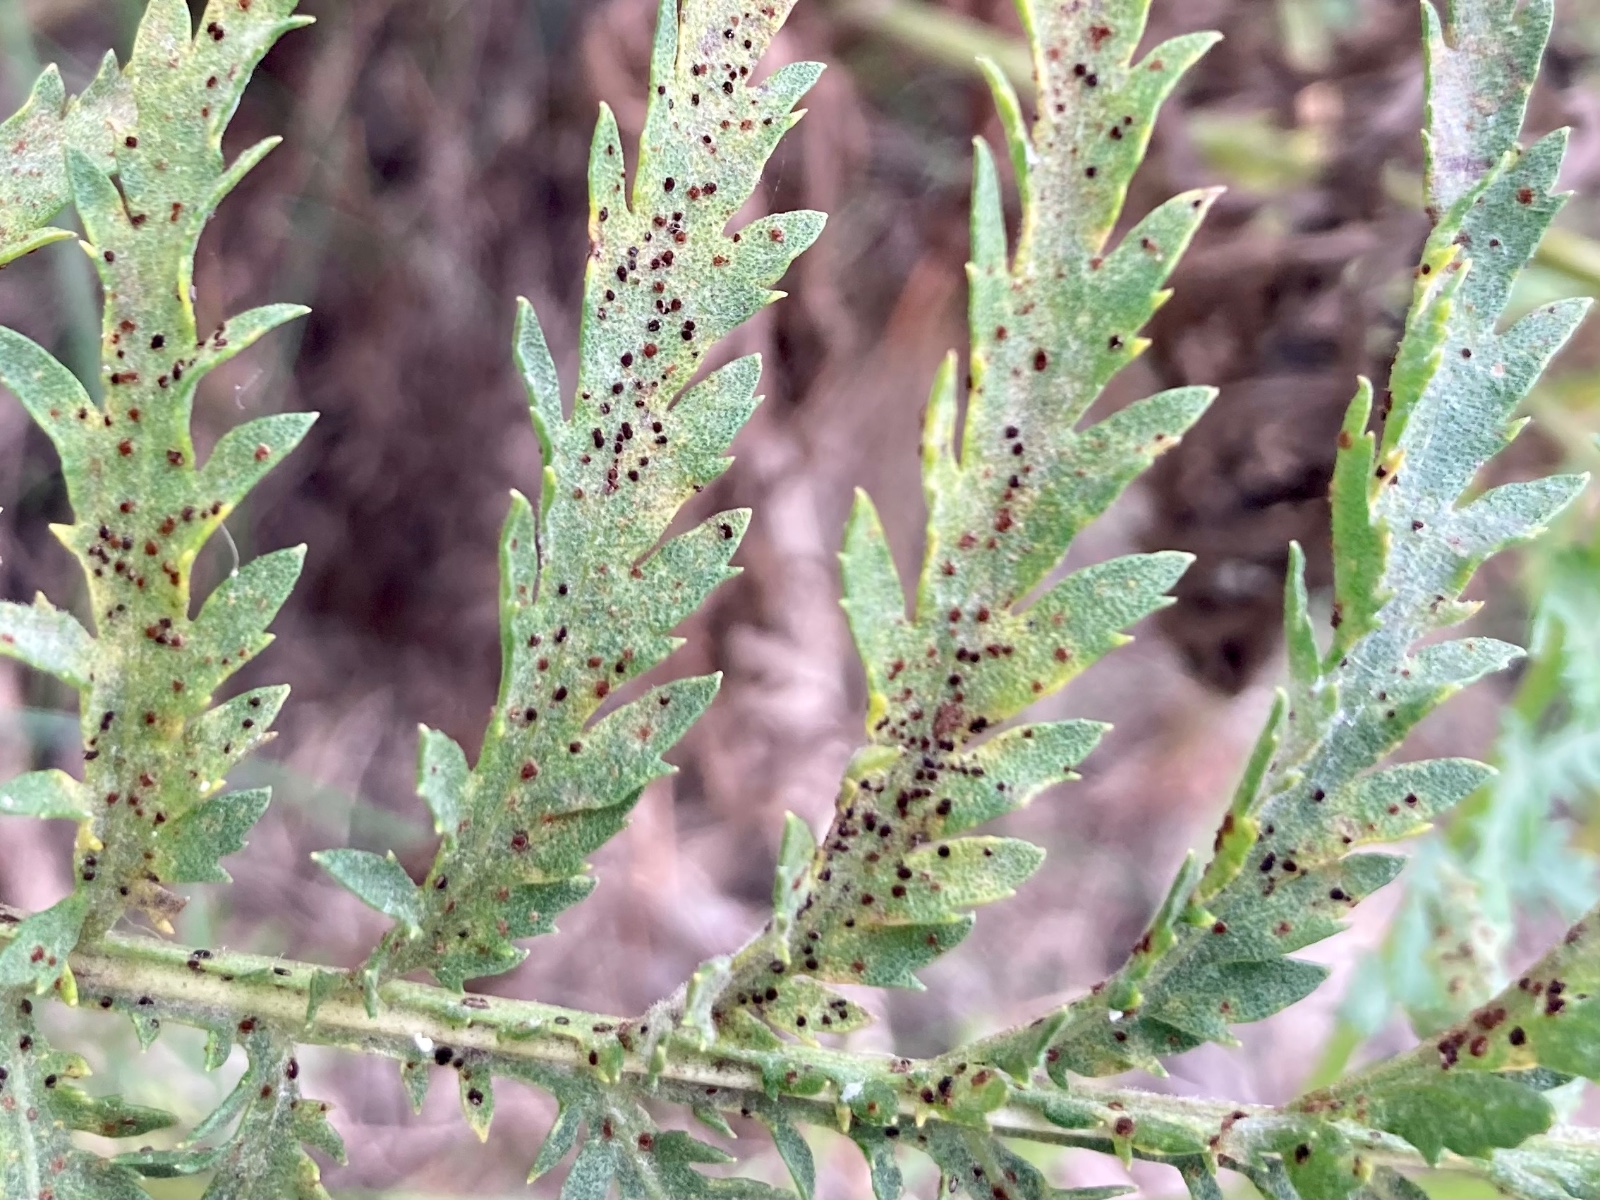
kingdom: Fungi
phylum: Basidiomycota
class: Pucciniomycetes
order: Pucciniales
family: Pucciniaceae
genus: Puccinia
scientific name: Puccinia
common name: tvecellerust
